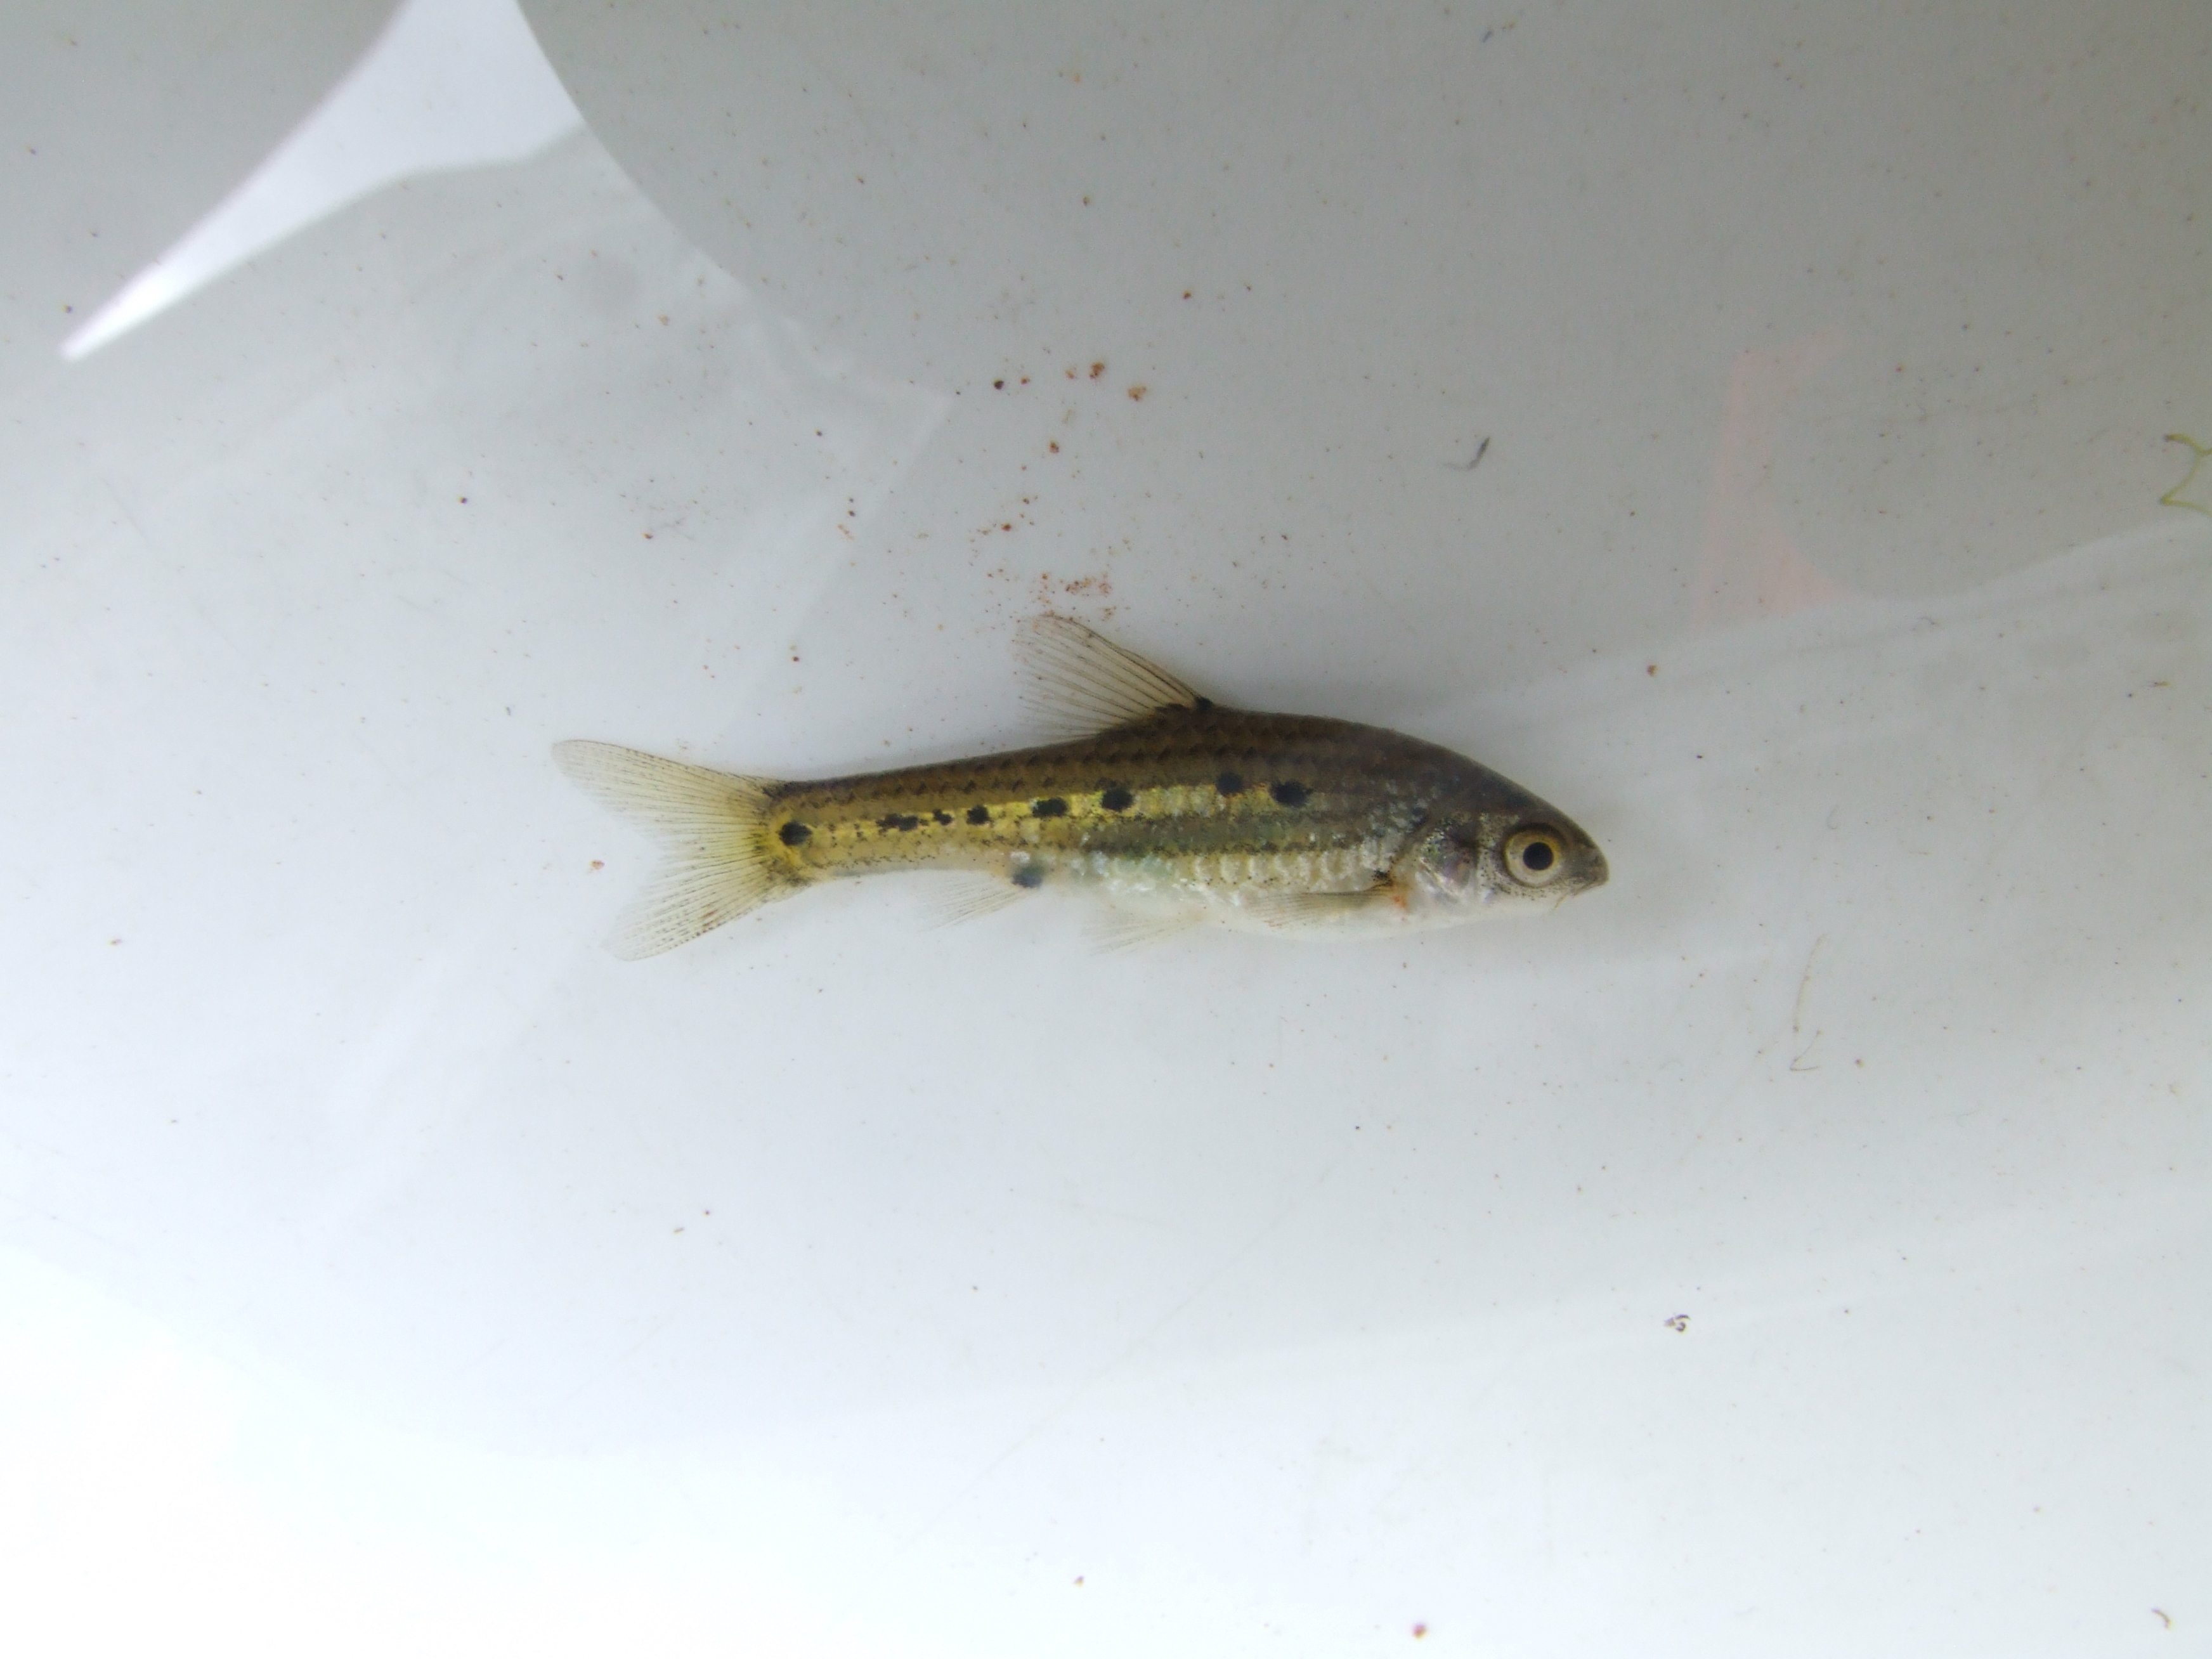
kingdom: Animalia
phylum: Chordata
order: Cypriniformes
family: Cyprinidae
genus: Enteromius
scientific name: Enteromius neefi
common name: Sidespot barb
